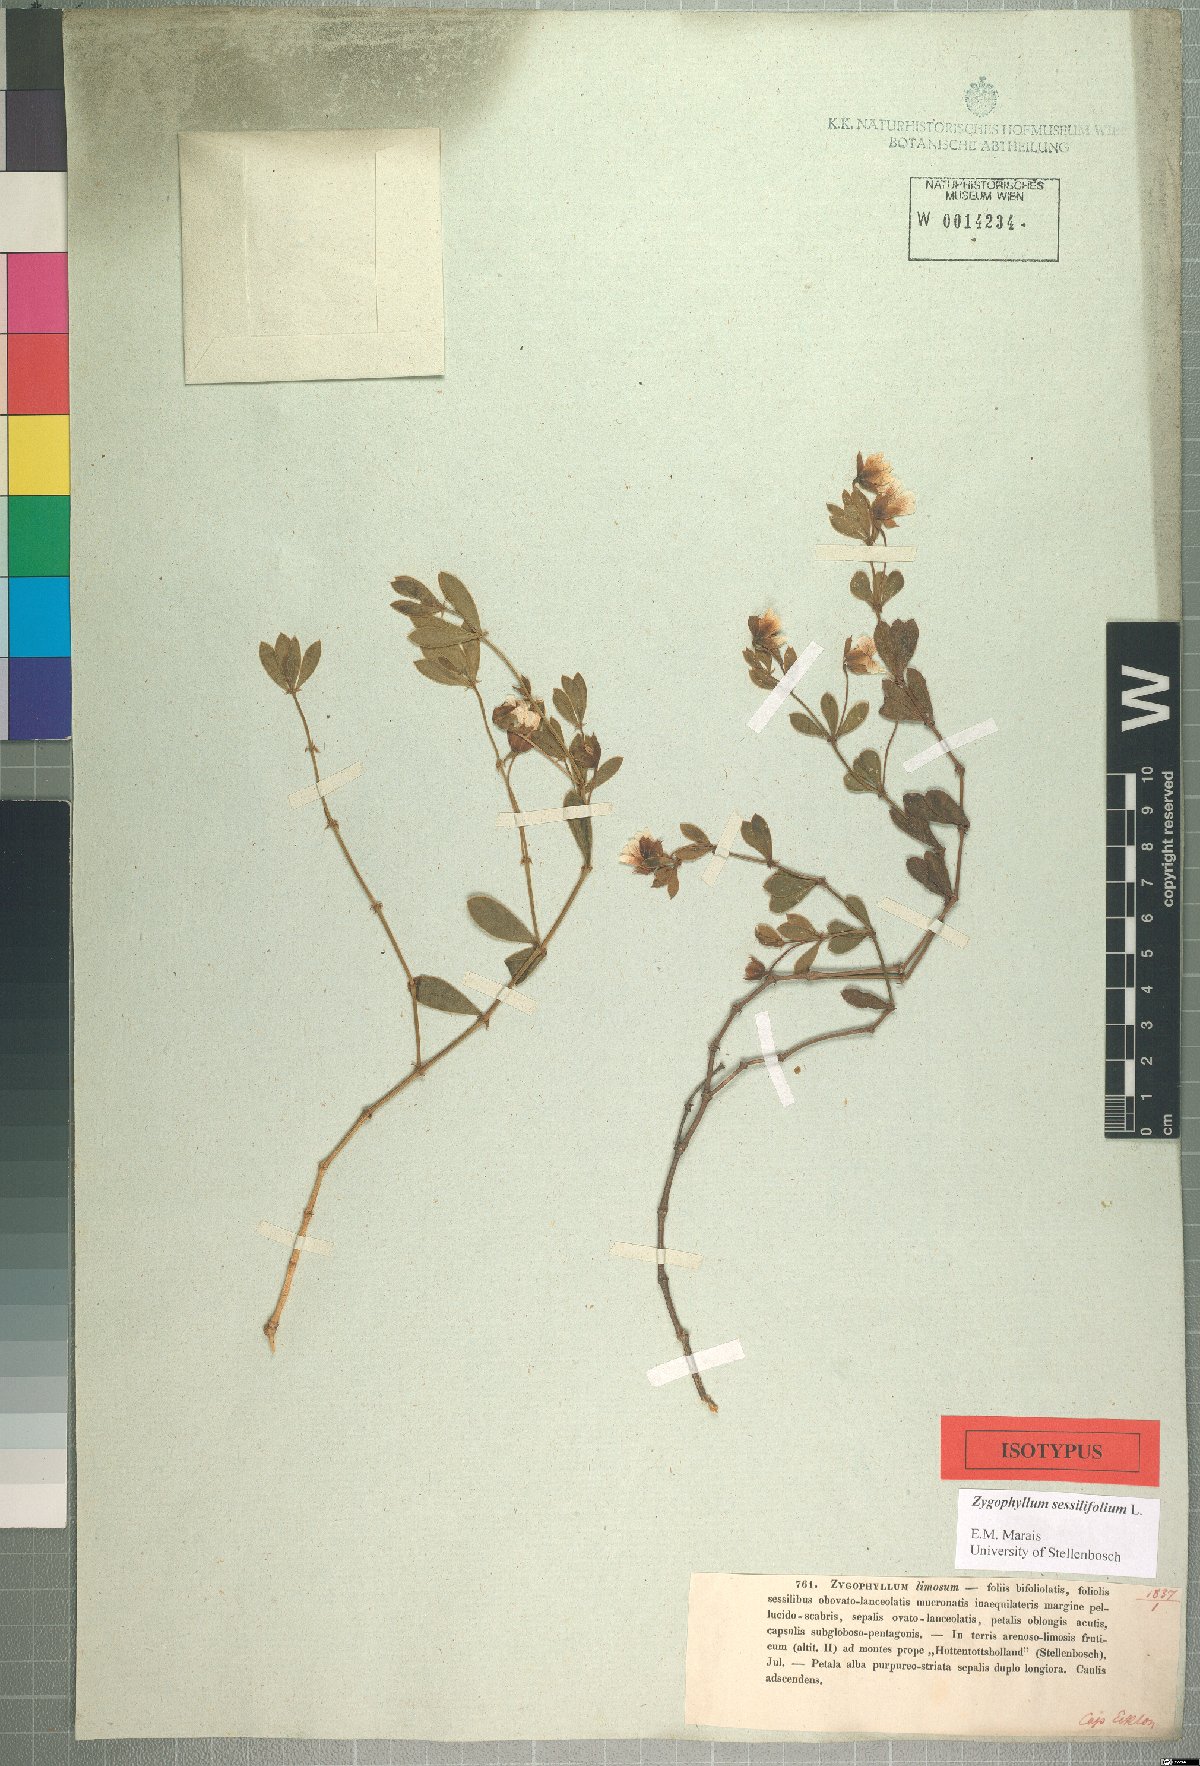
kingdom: Plantae
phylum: Tracheophyta
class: Magnoliopsida
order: Zygophyllales
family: Zygophyllaceae
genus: Roepera
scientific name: Roepera sessilifolia
